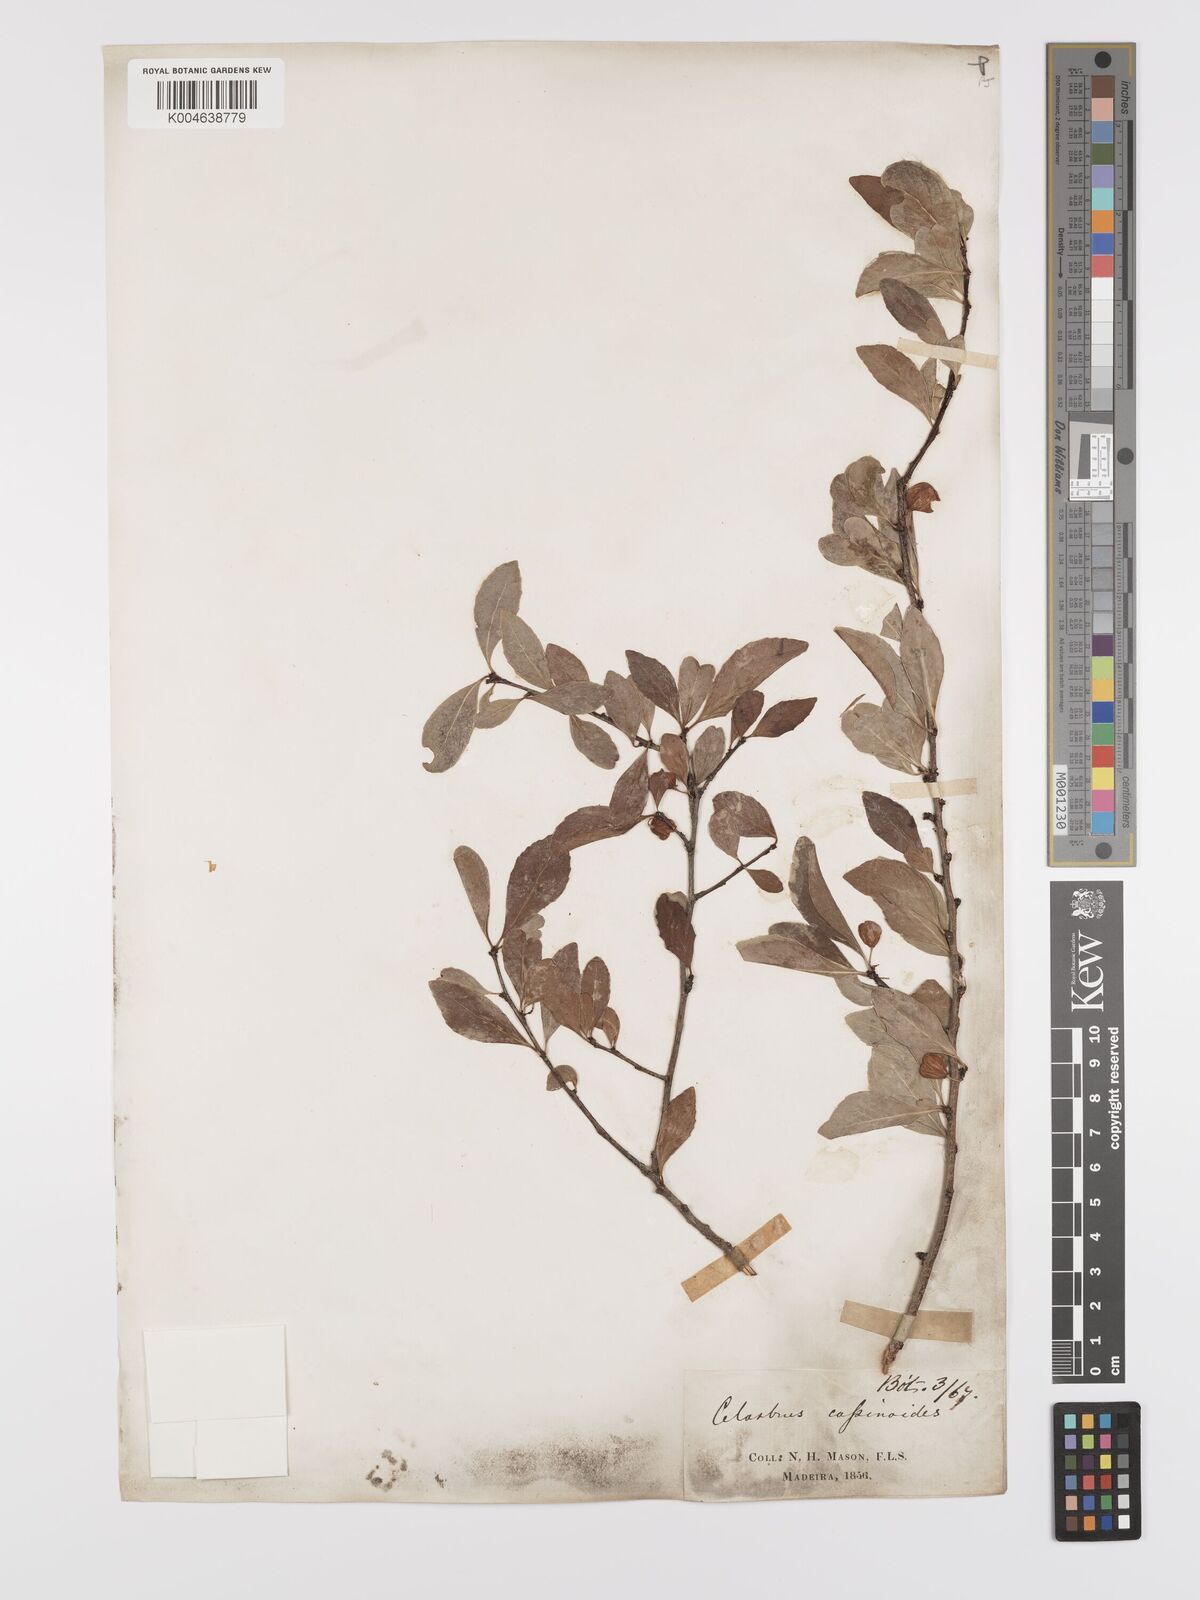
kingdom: Plantae
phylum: Tracheophyta
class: Magnoliopsida
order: Celastrales
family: Celastraceae
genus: Gymnosporia
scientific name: Gymnosporia cassinoides
